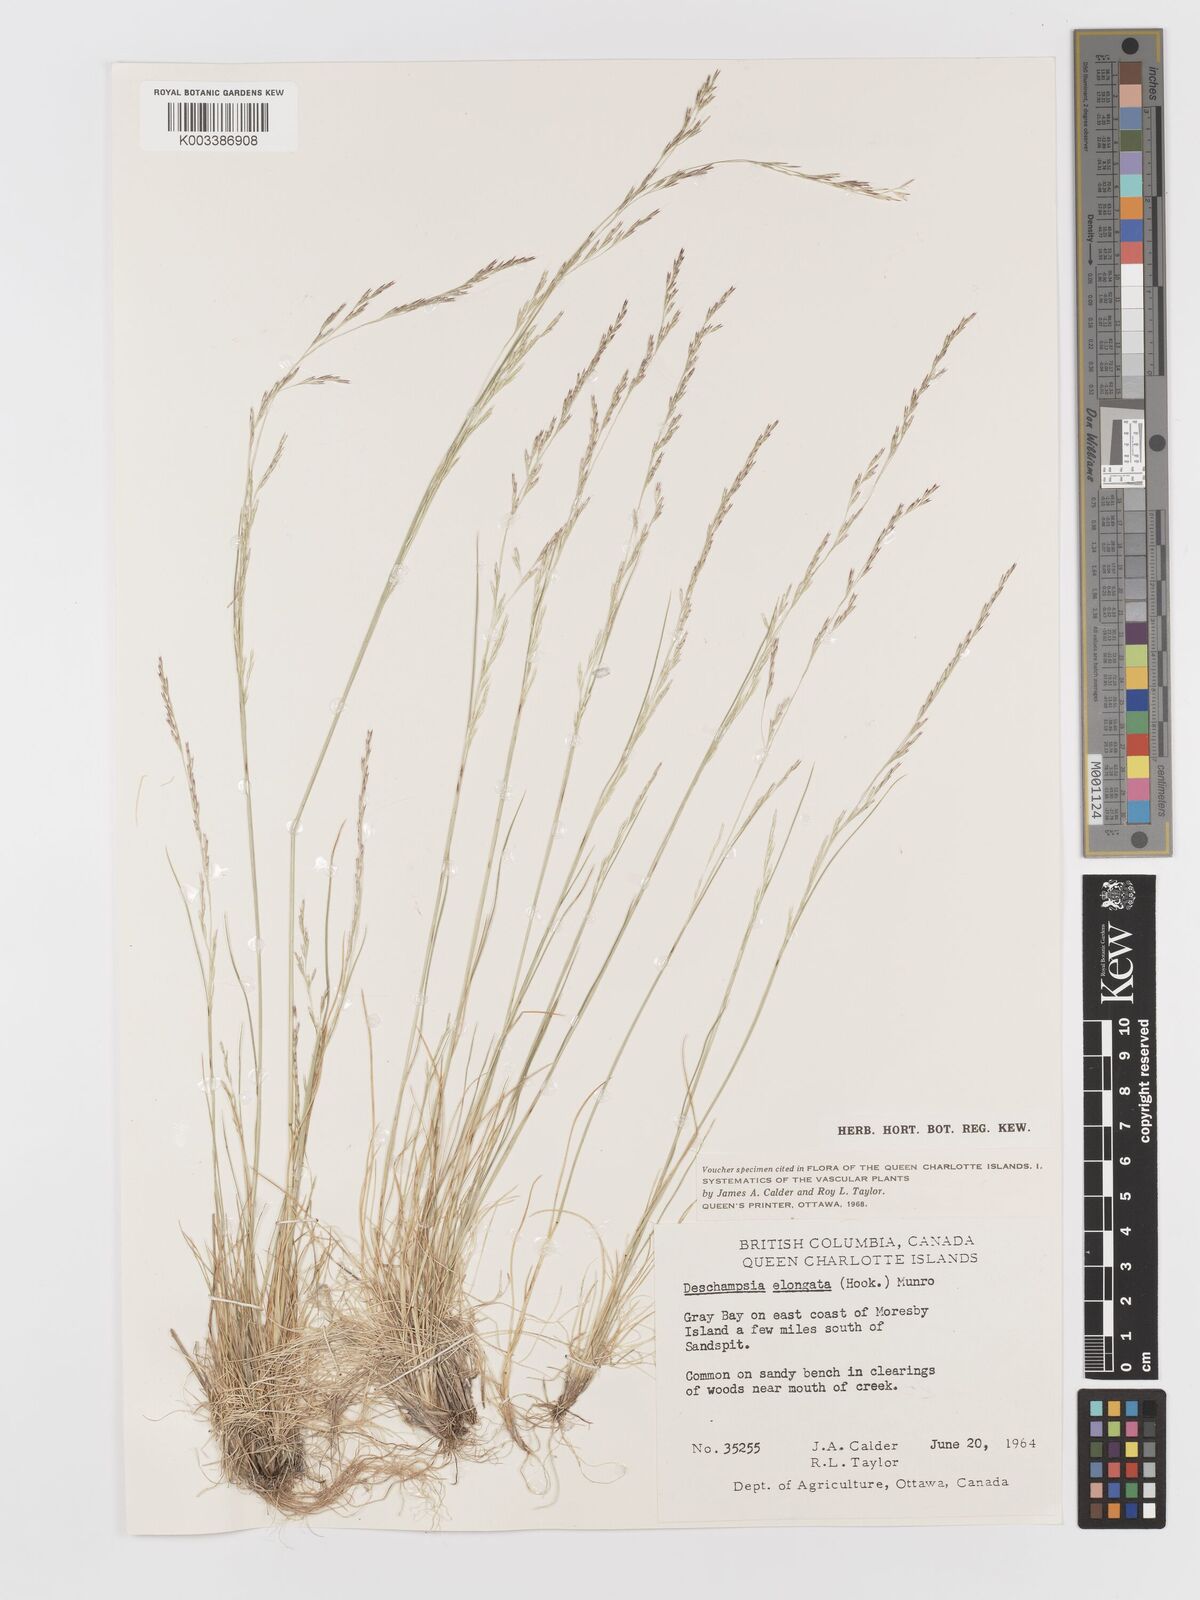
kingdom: Plantae
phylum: Tracheophyta
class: Liliopsida
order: Poales
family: Poaceae
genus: Deschampsia
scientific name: Deschampsia elongata
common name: Slender hairgrass
